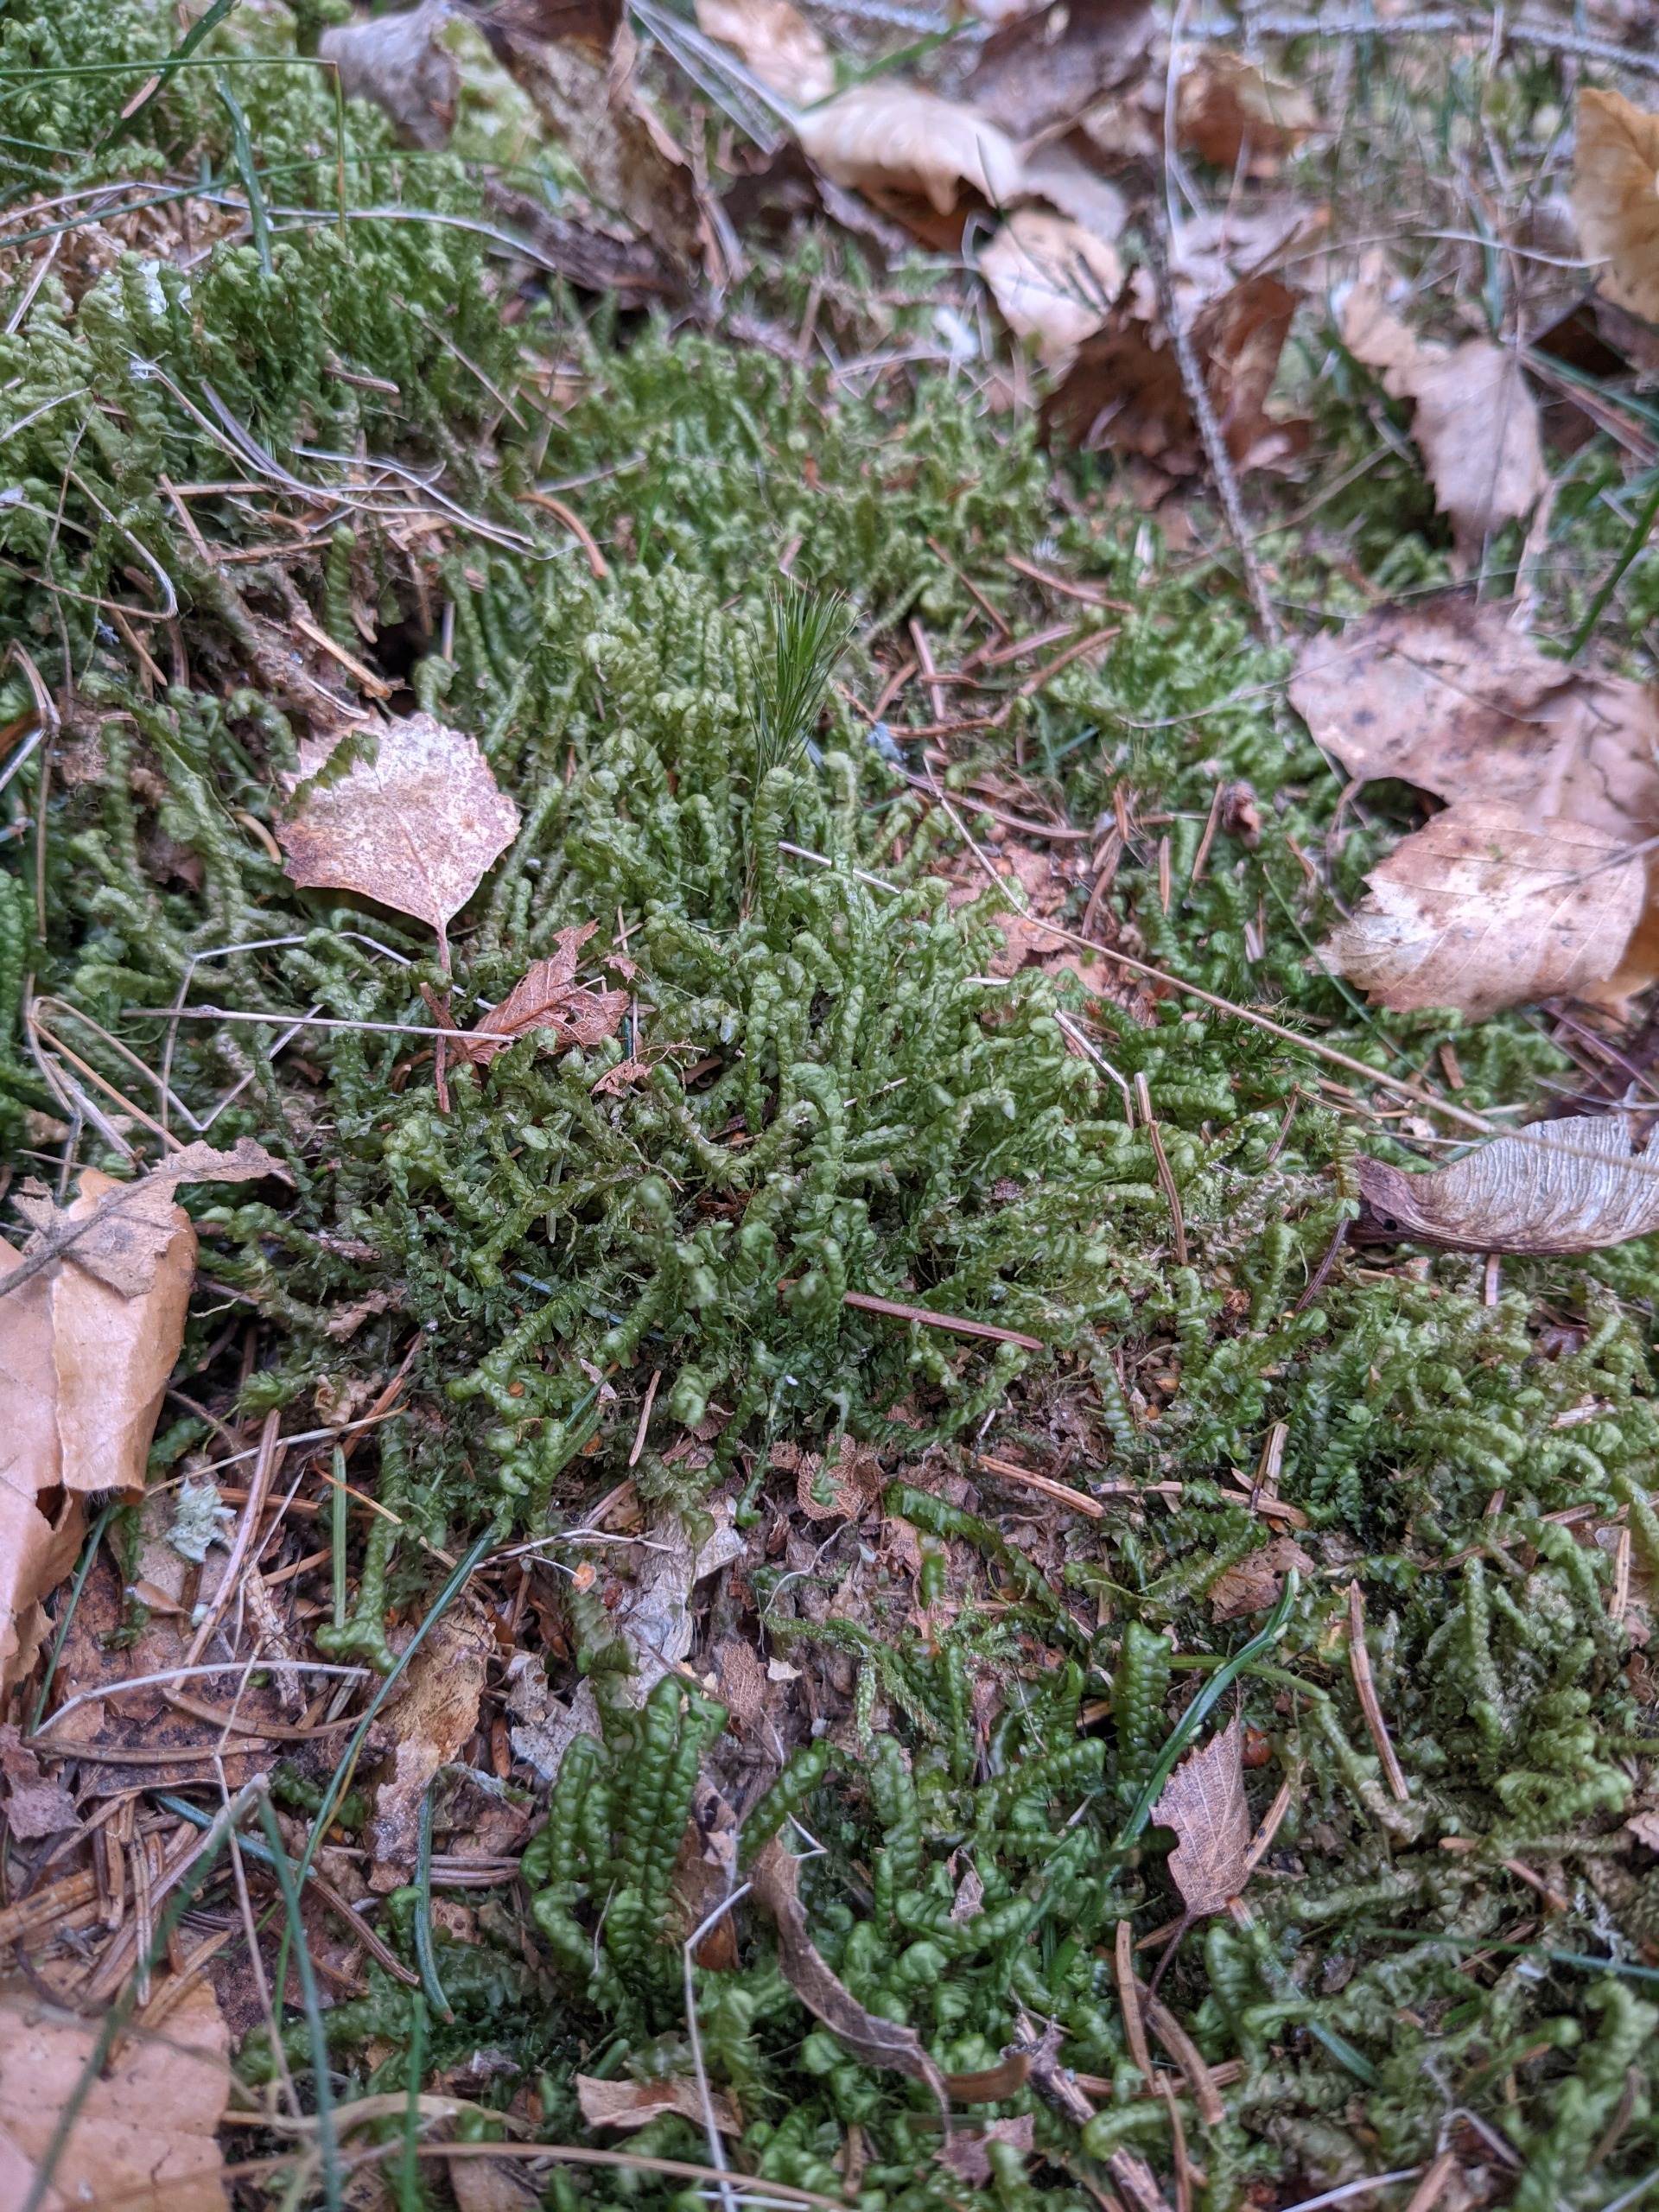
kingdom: Plantae
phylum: Marchantiophyta
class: Jungermanniopsida
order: Jungermanniales
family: Lepidoziaceae
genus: Bazzania
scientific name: Bazzania trilobata
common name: Stor styltemos
